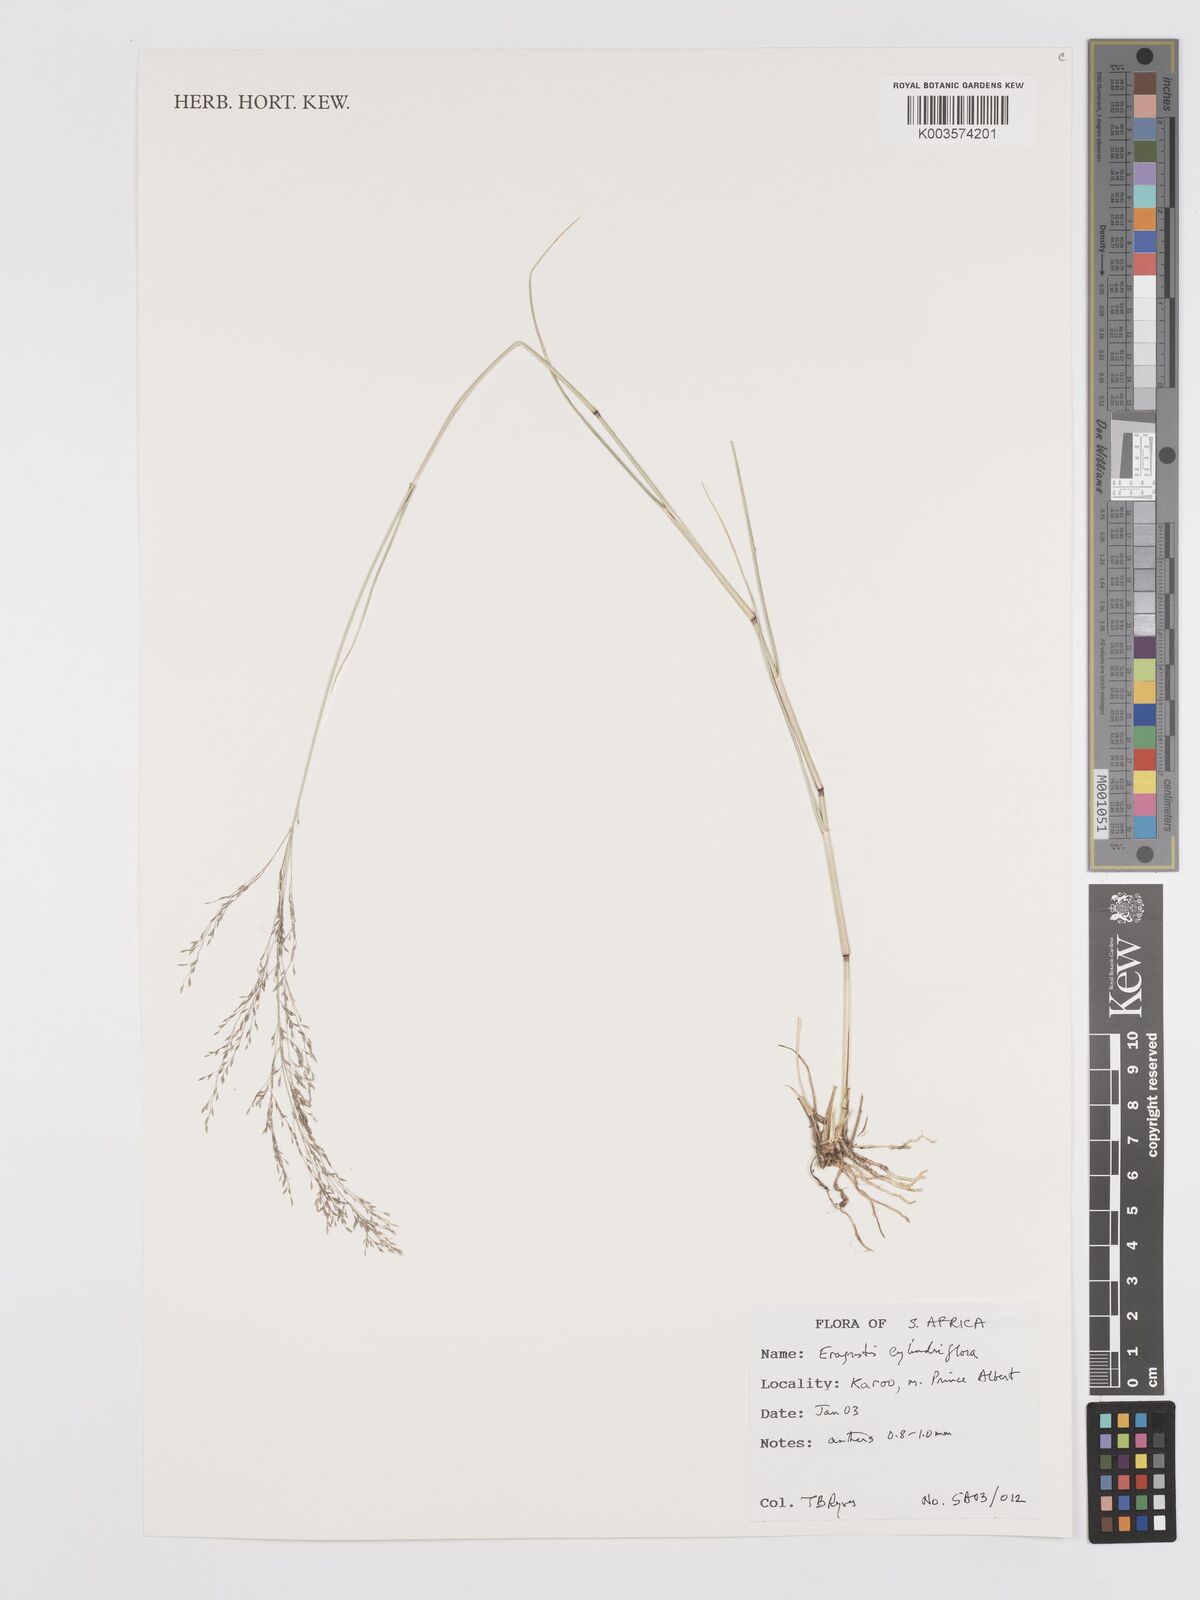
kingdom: Plantae
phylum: Tracheophyta
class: Liliopsida
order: Poales
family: Poaceae
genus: Eragrostis
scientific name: Eragrostis cylindriflora
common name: Cylinderflower lovegrass
